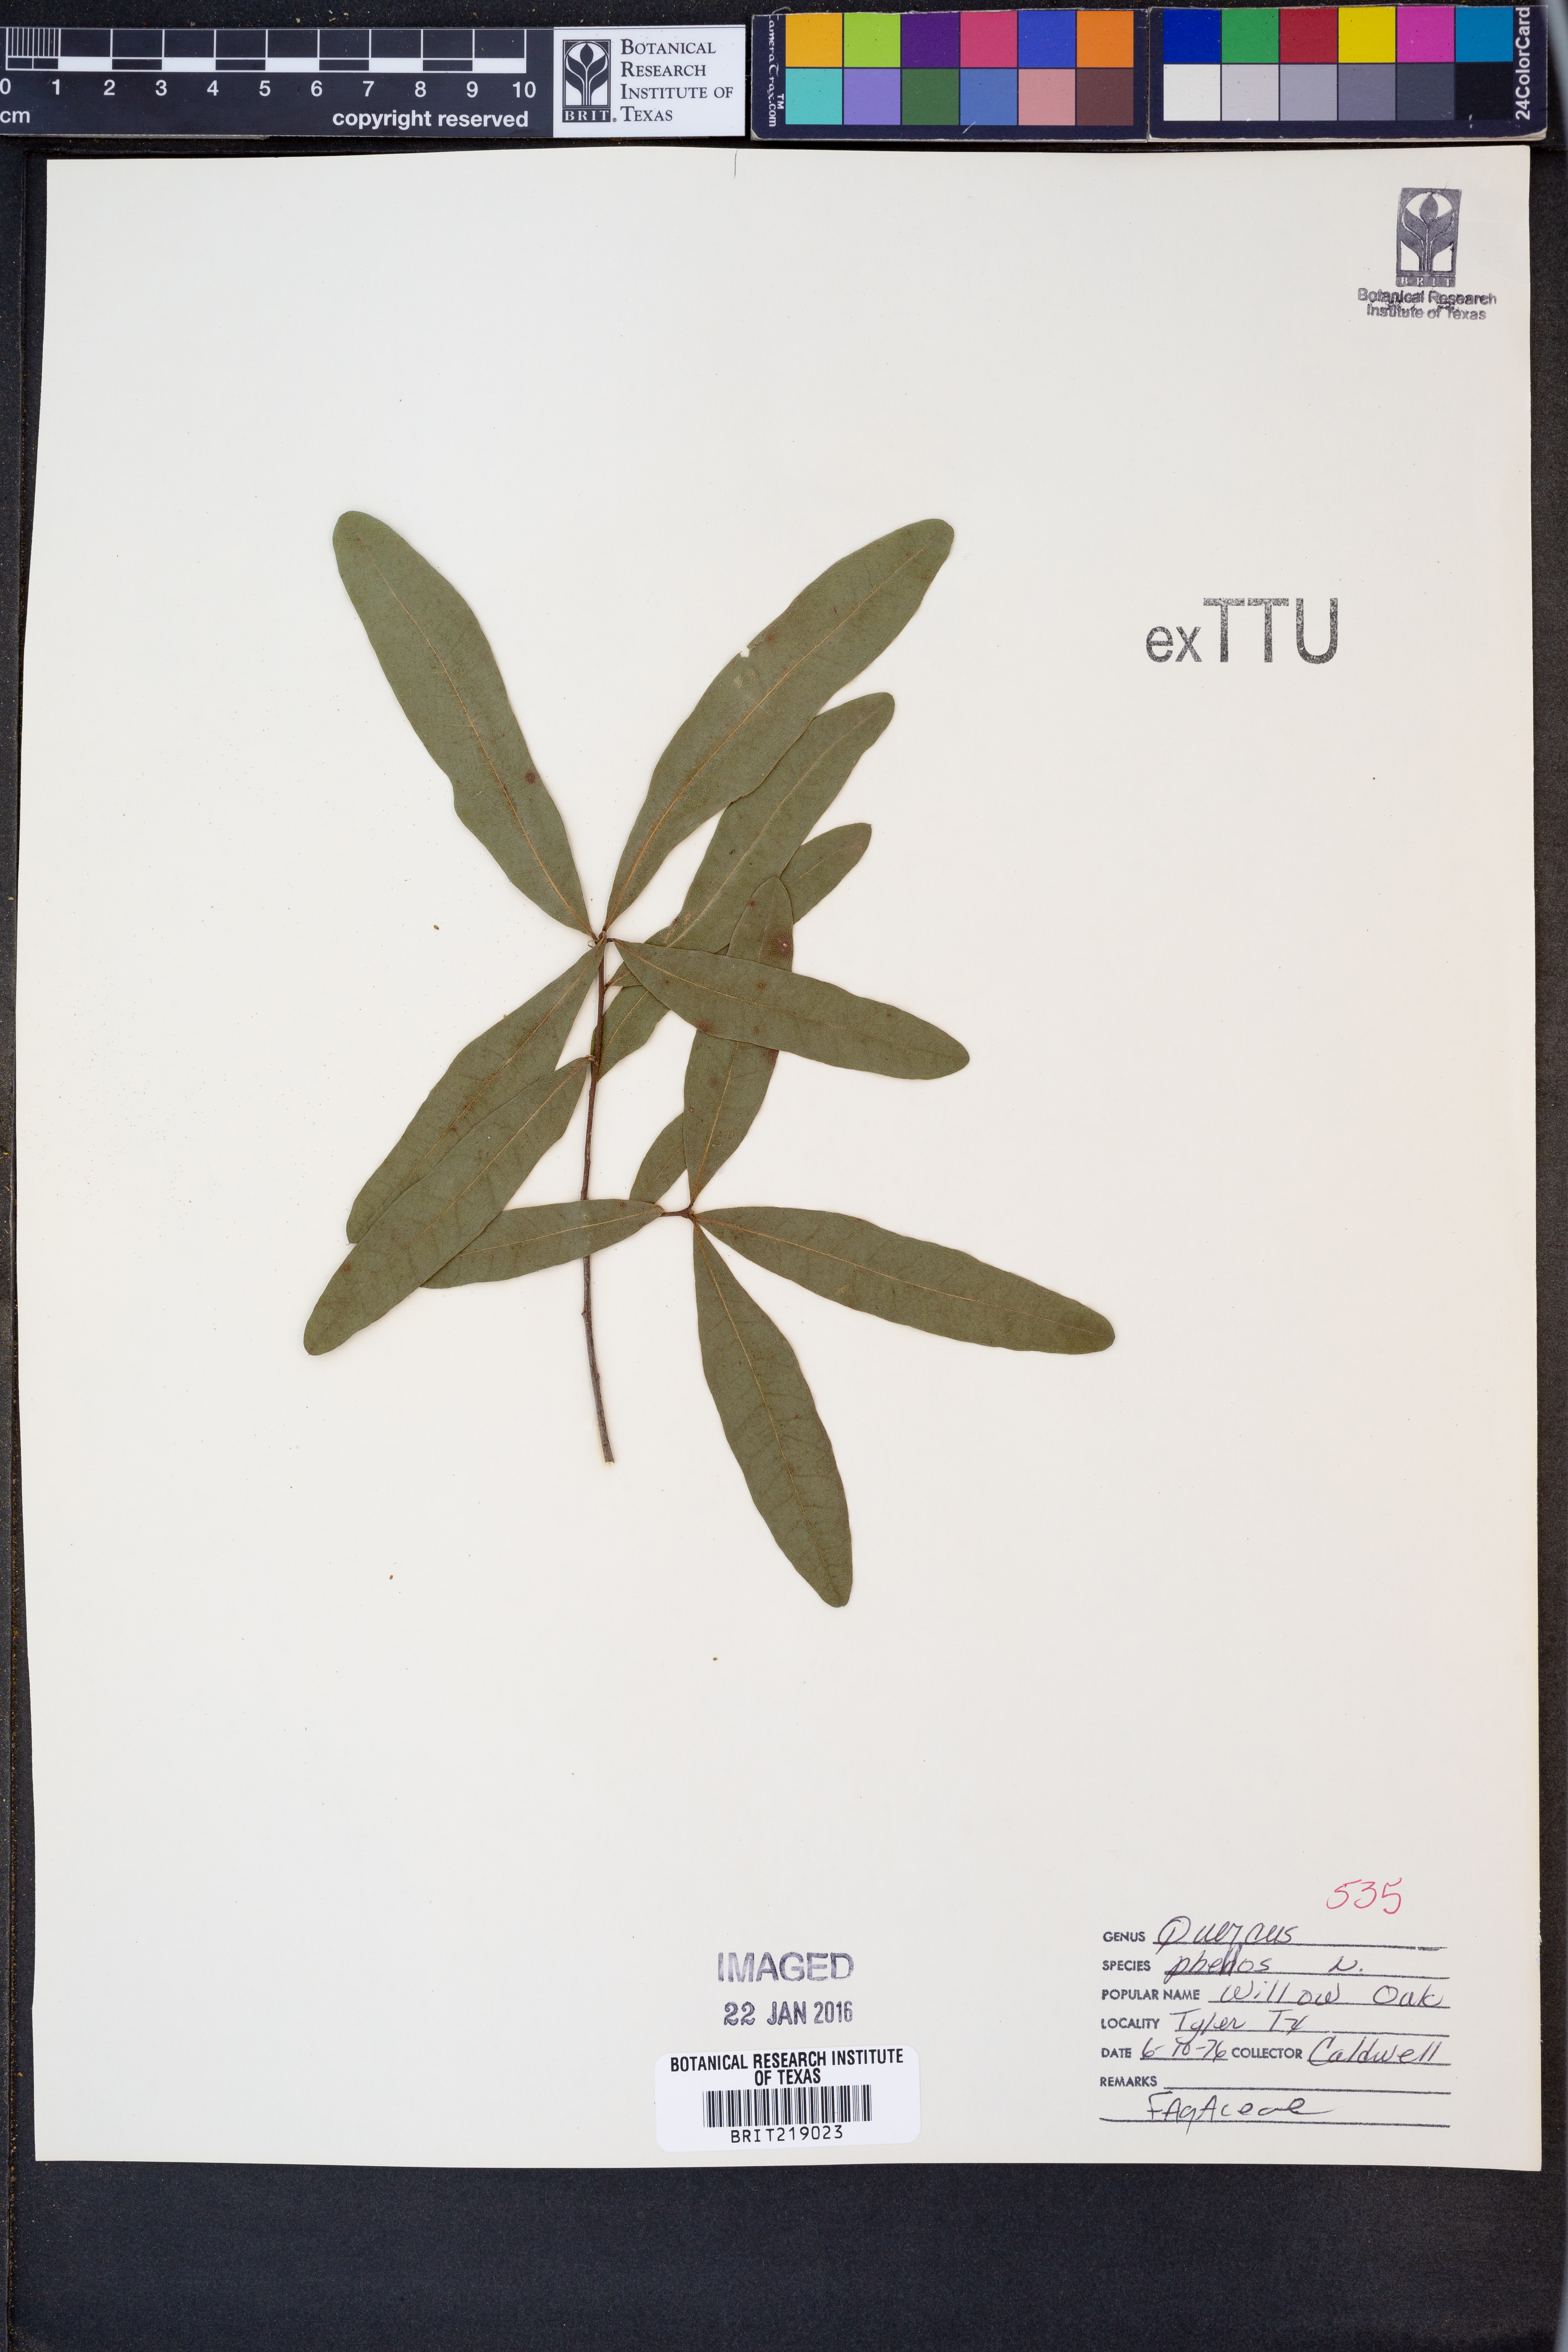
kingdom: Plantae
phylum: Tracheophyta
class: Magnoliopsida
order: Fagales
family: Fagaceae
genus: Quercus
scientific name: Quercus phellos
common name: Willow oak
